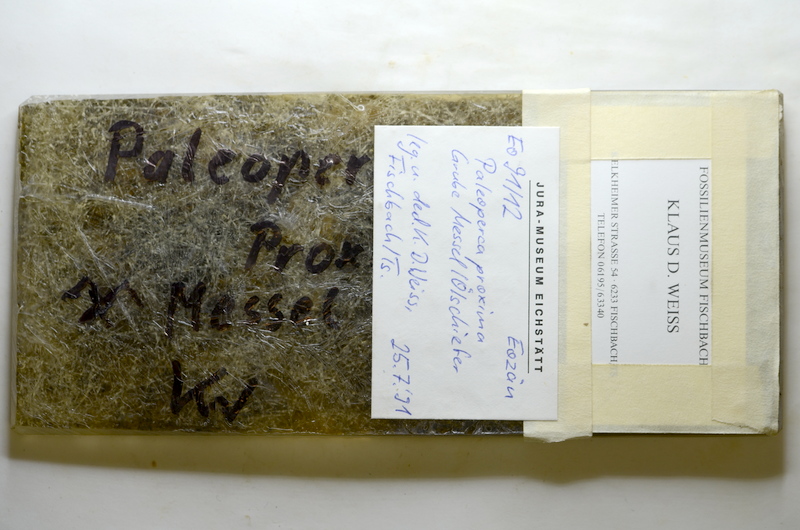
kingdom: Animalia
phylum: Chordata
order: Perciformes
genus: Palaeoperca
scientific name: Palaeoperca
